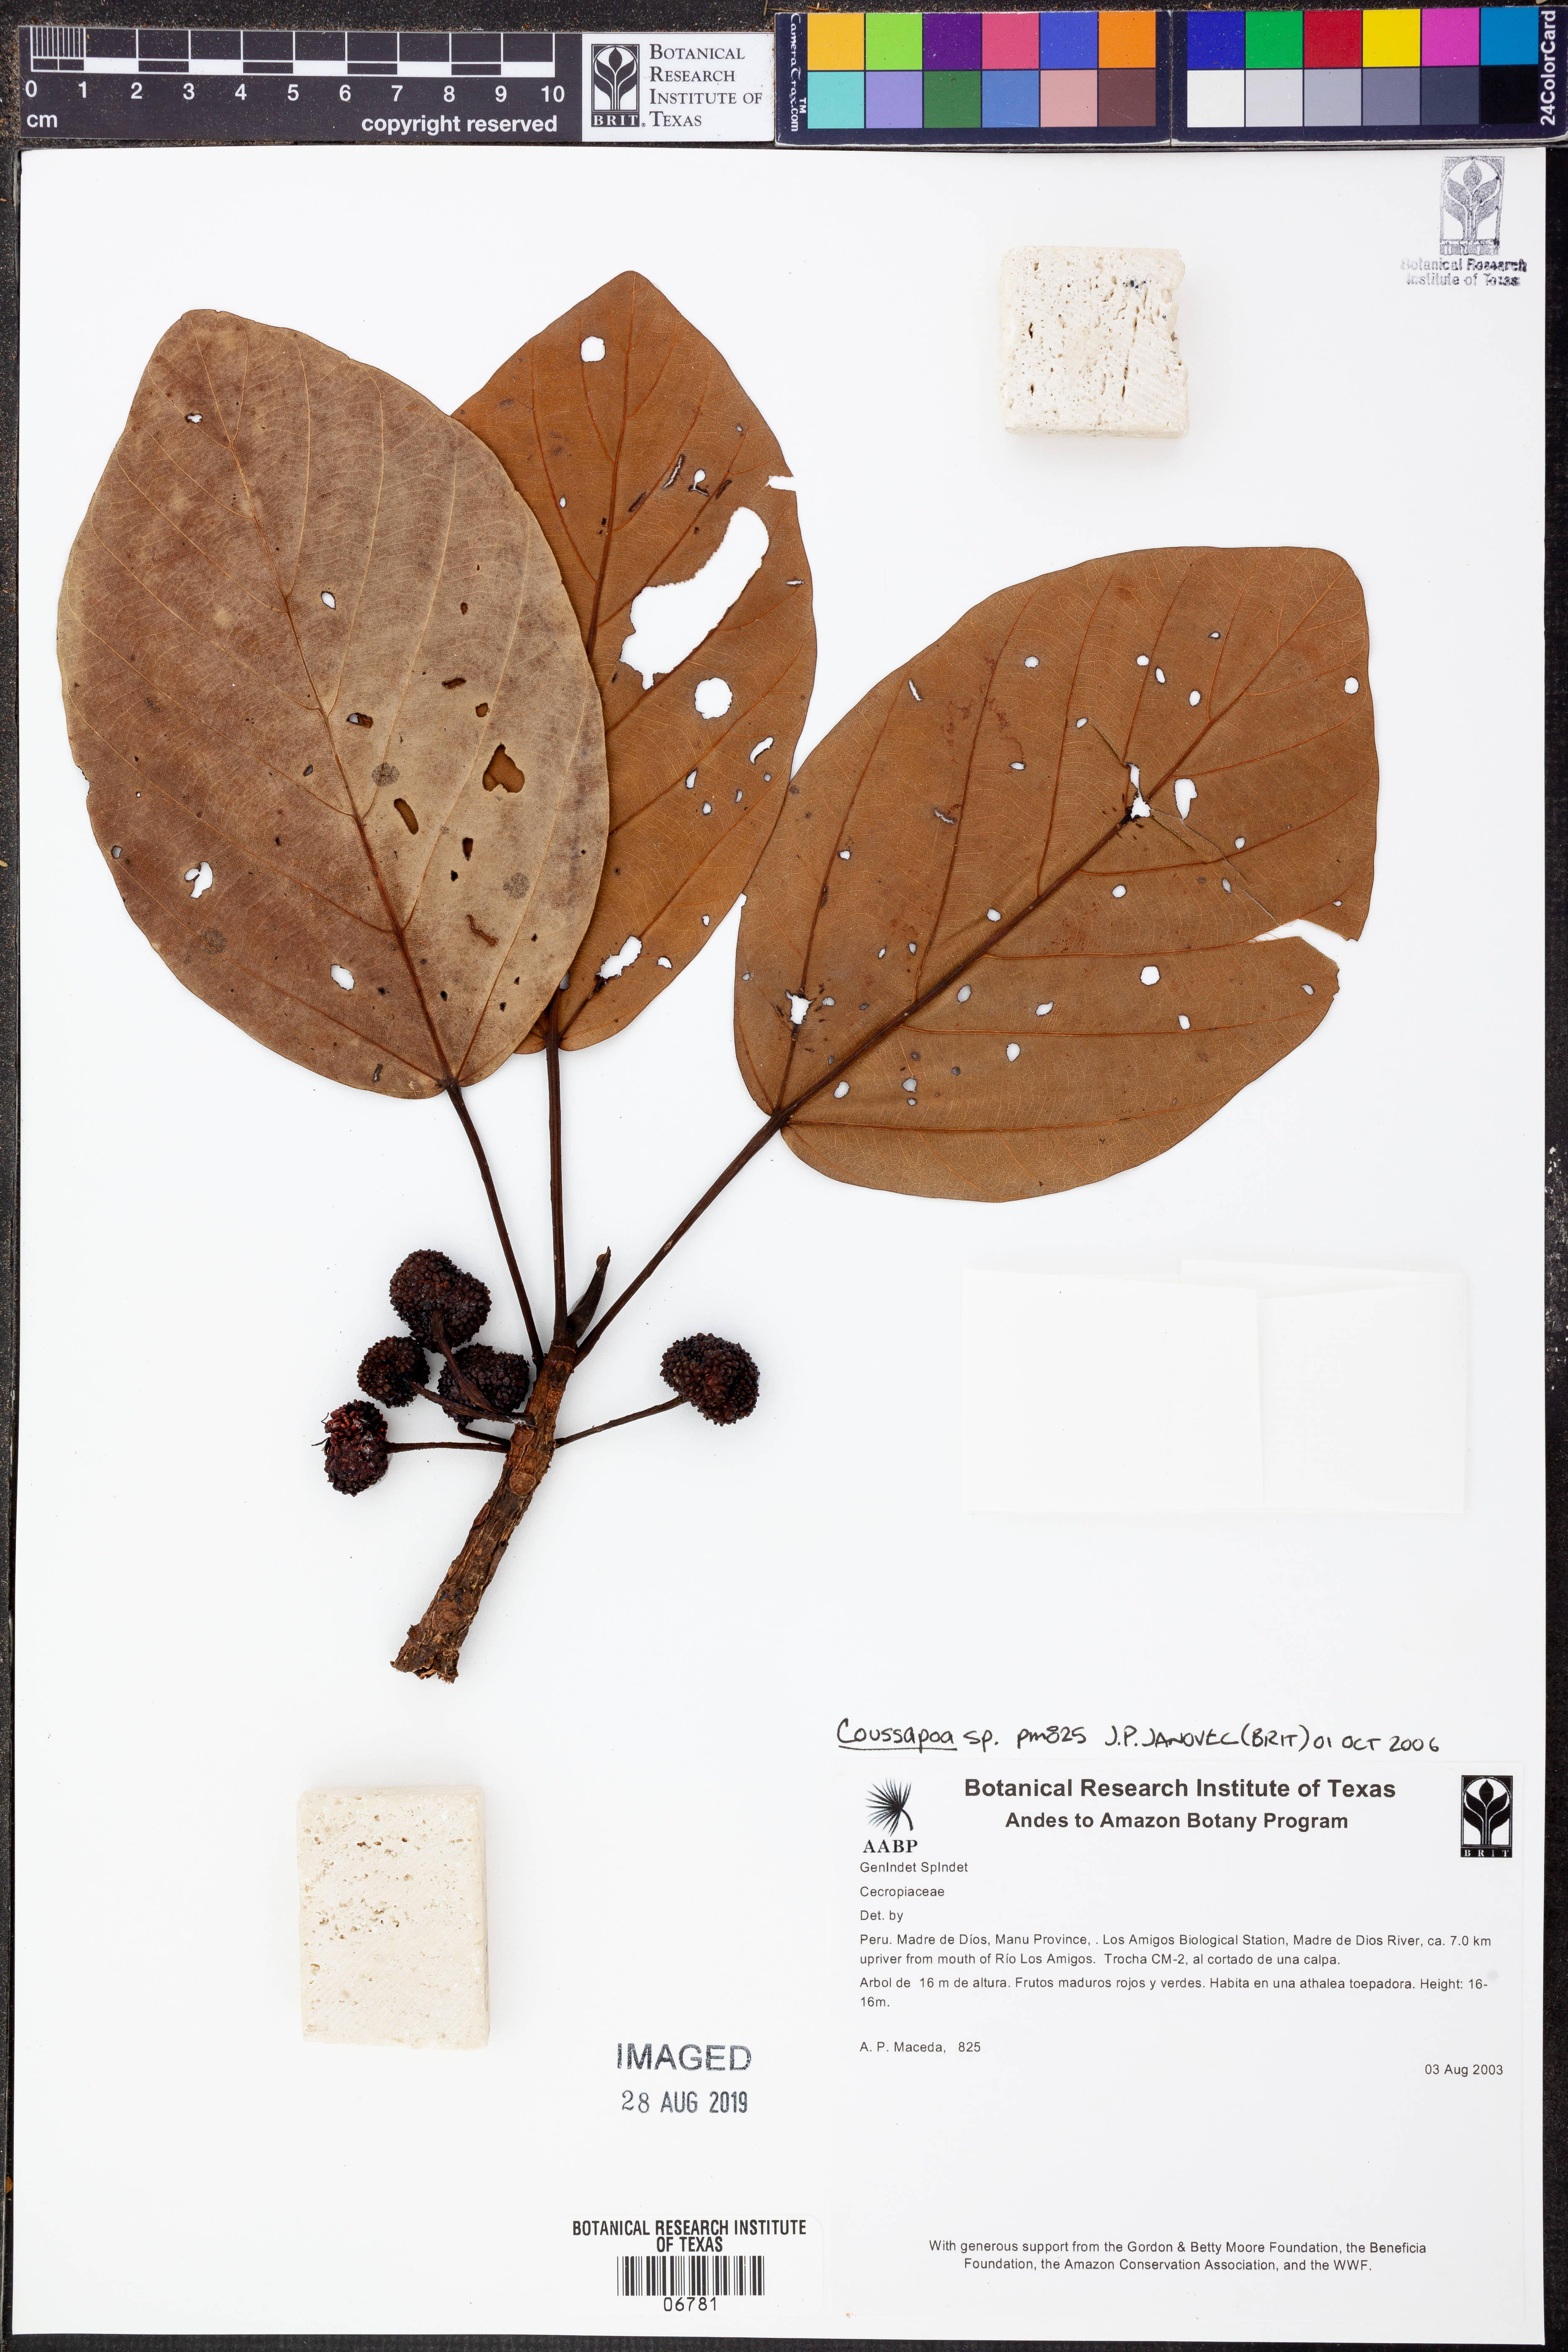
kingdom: Plantae
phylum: Tracheophyta
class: Magnoliopsida
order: Rosales
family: Urticaceae
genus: Coussapoa
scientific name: Coussapoa
